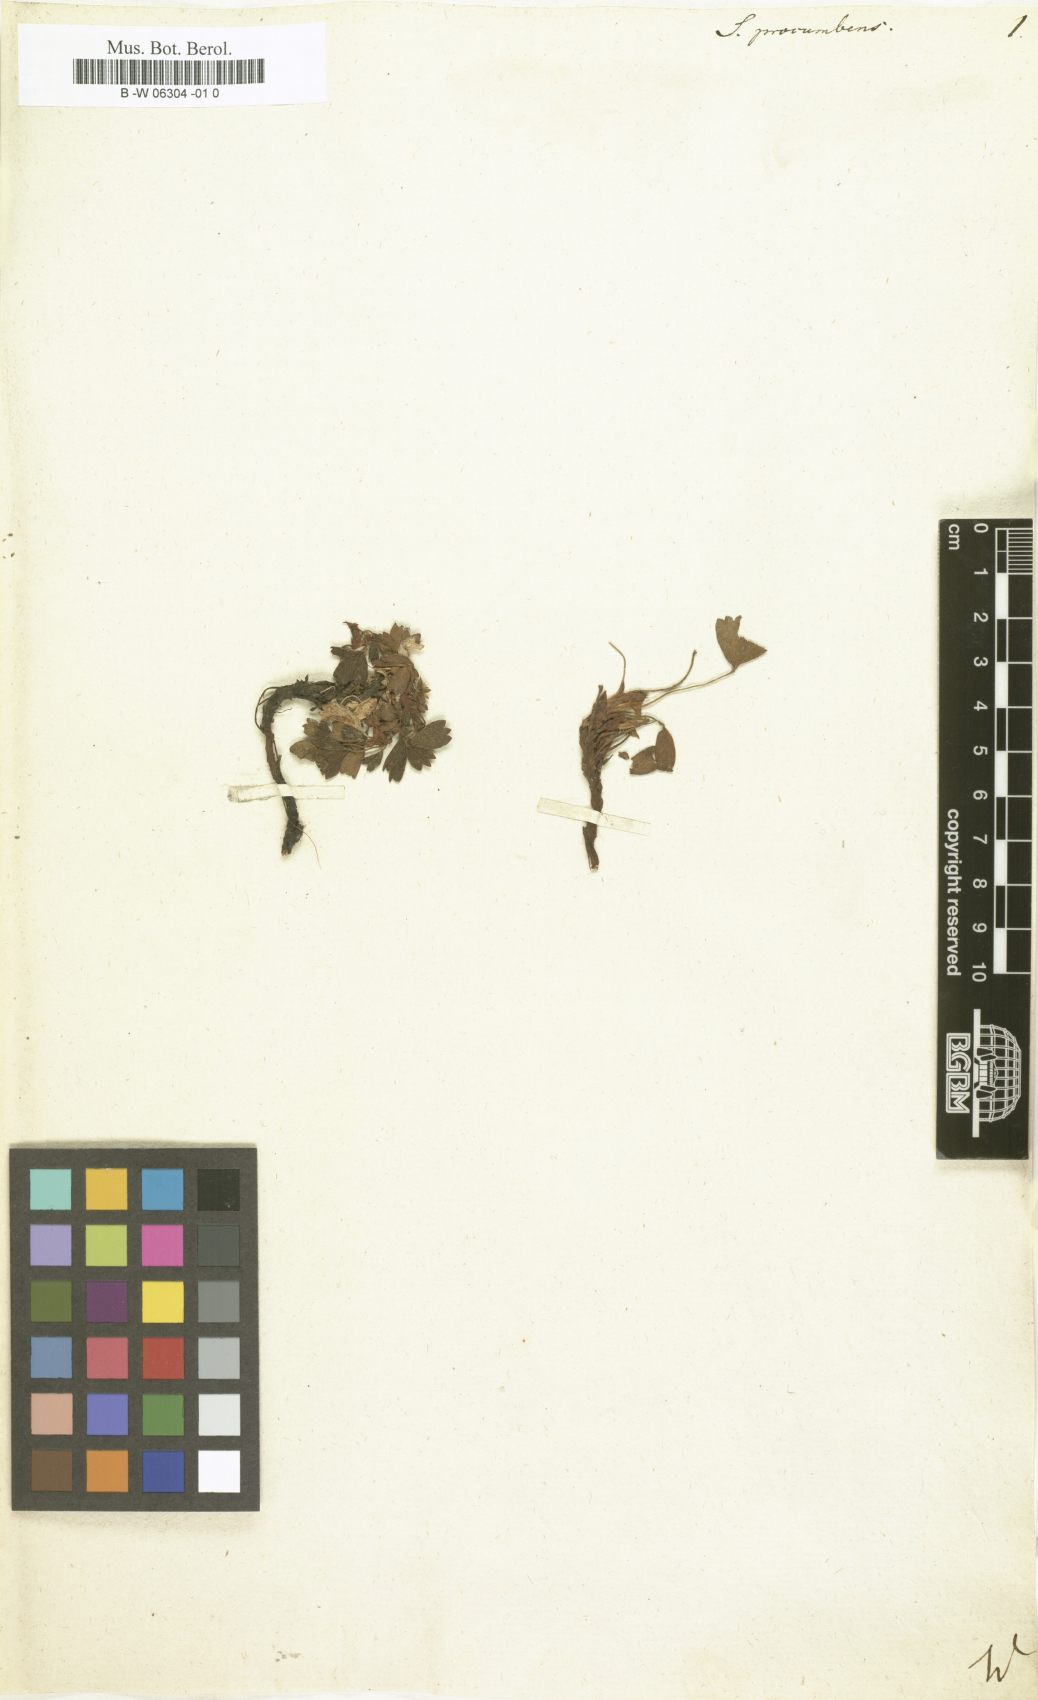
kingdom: Plantae
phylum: Tracheophyta
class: Magnoliopsida
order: Rosales
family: Rosaceae
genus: Sibbaldia
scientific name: Sibbaldia procumbens
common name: Creeping sibbaldia
